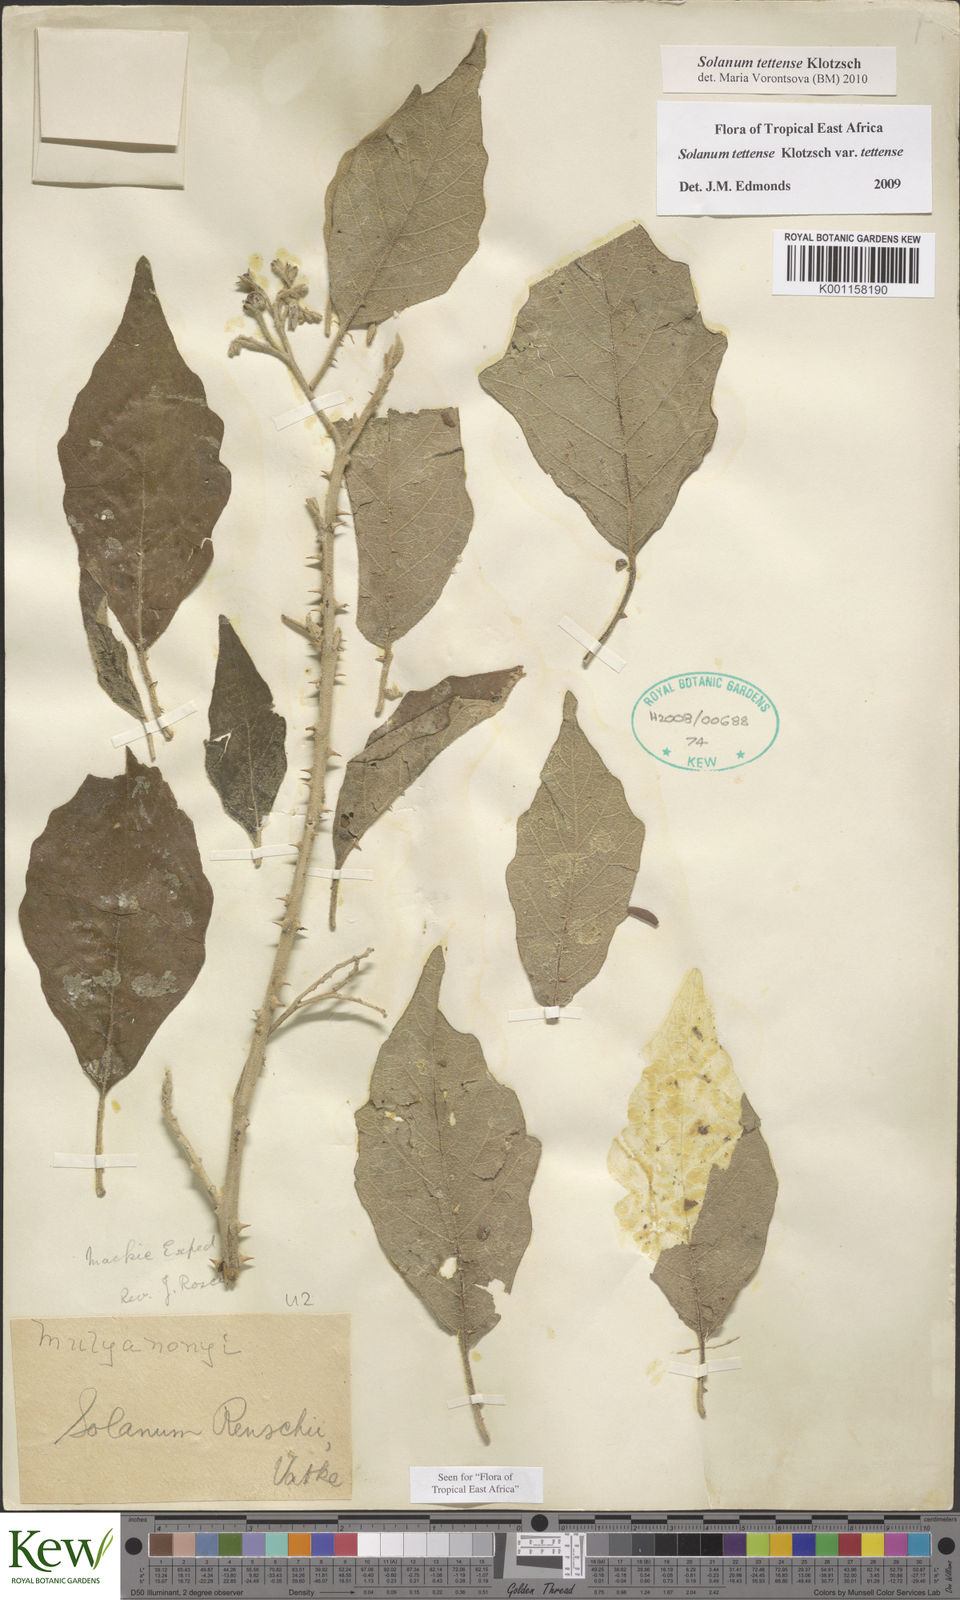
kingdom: Plantae
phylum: Tracheophyta
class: Magnoliopsida
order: Solanales
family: Solanaceae
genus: Solanum
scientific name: Solanum tettense
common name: Mozambique bitter apple
